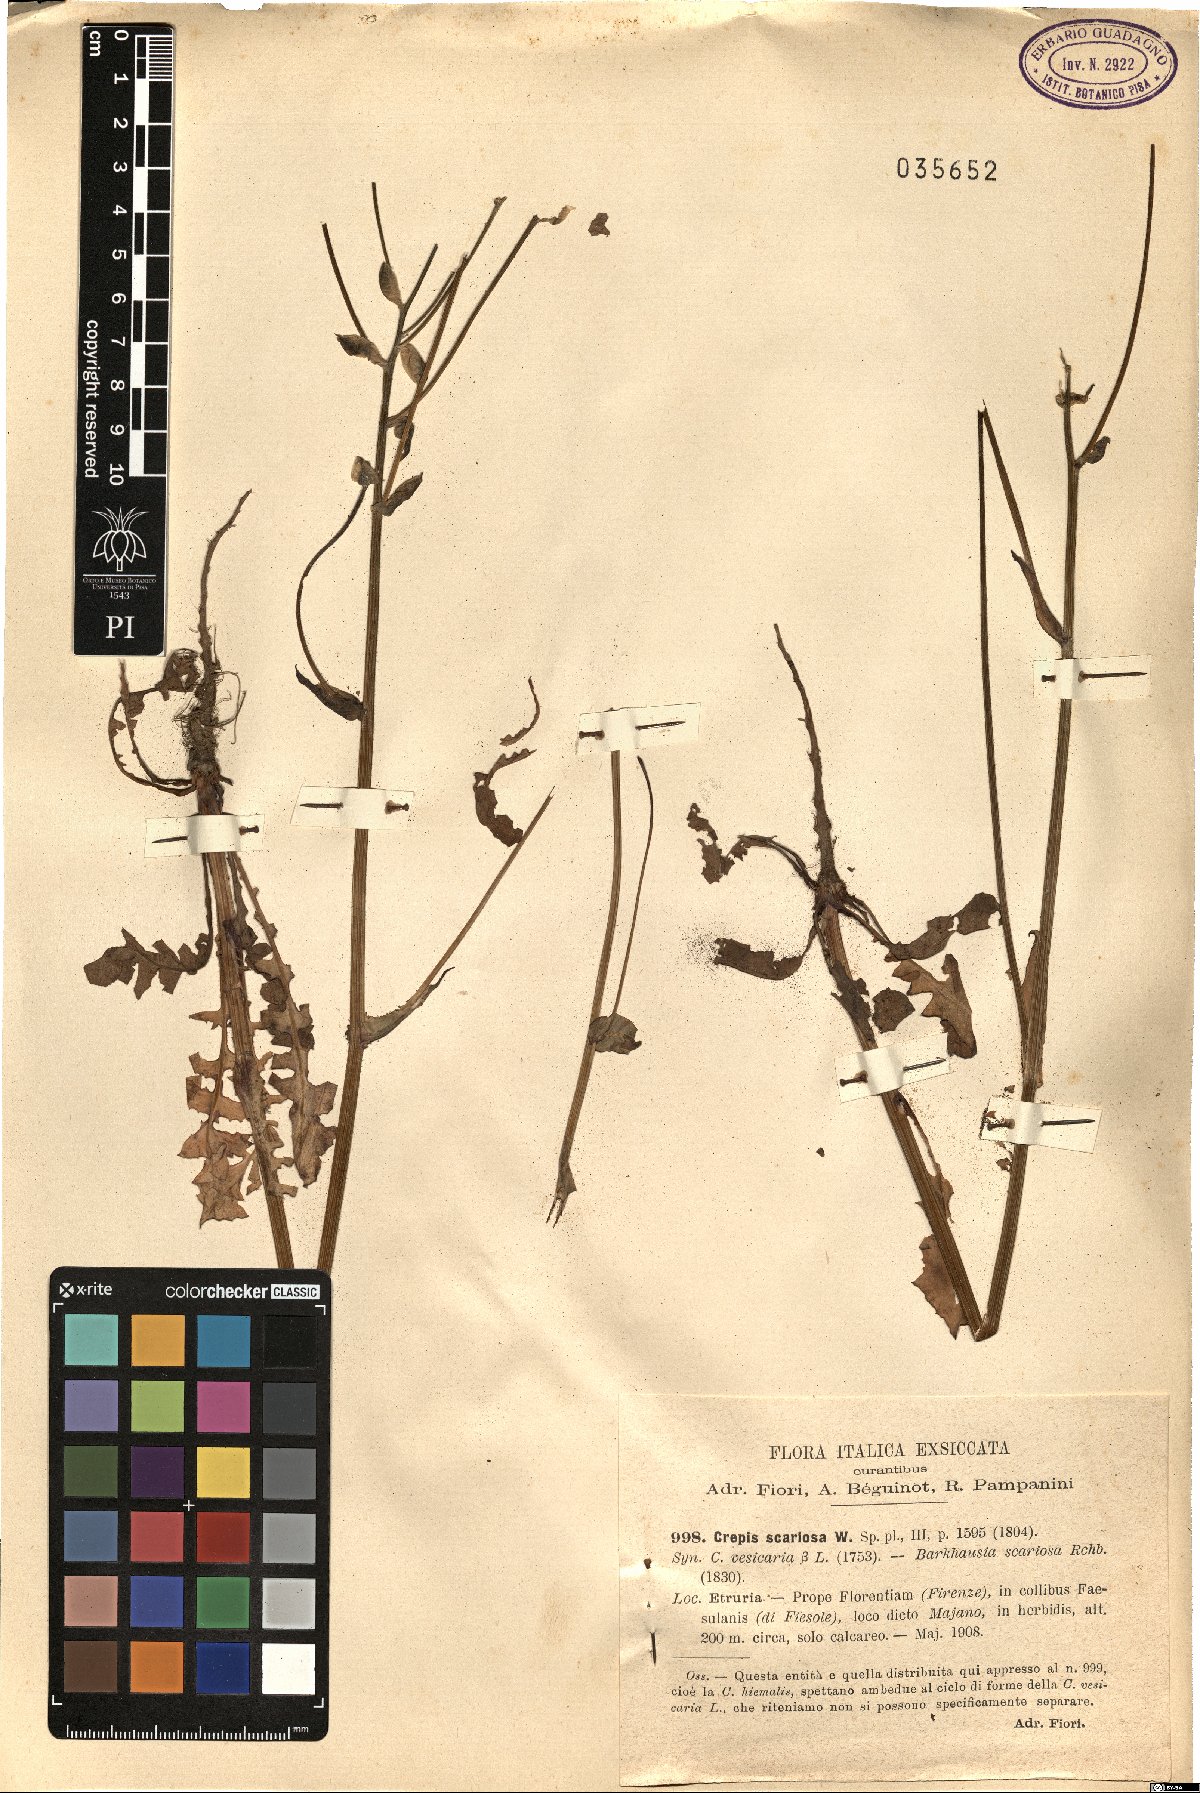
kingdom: Plantae
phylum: Tracheophyta
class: Magnoliopsida
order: Asterales
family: Asteraceae
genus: Crepis
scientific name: Crepis vesicaria
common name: Beaked hawksbeard
